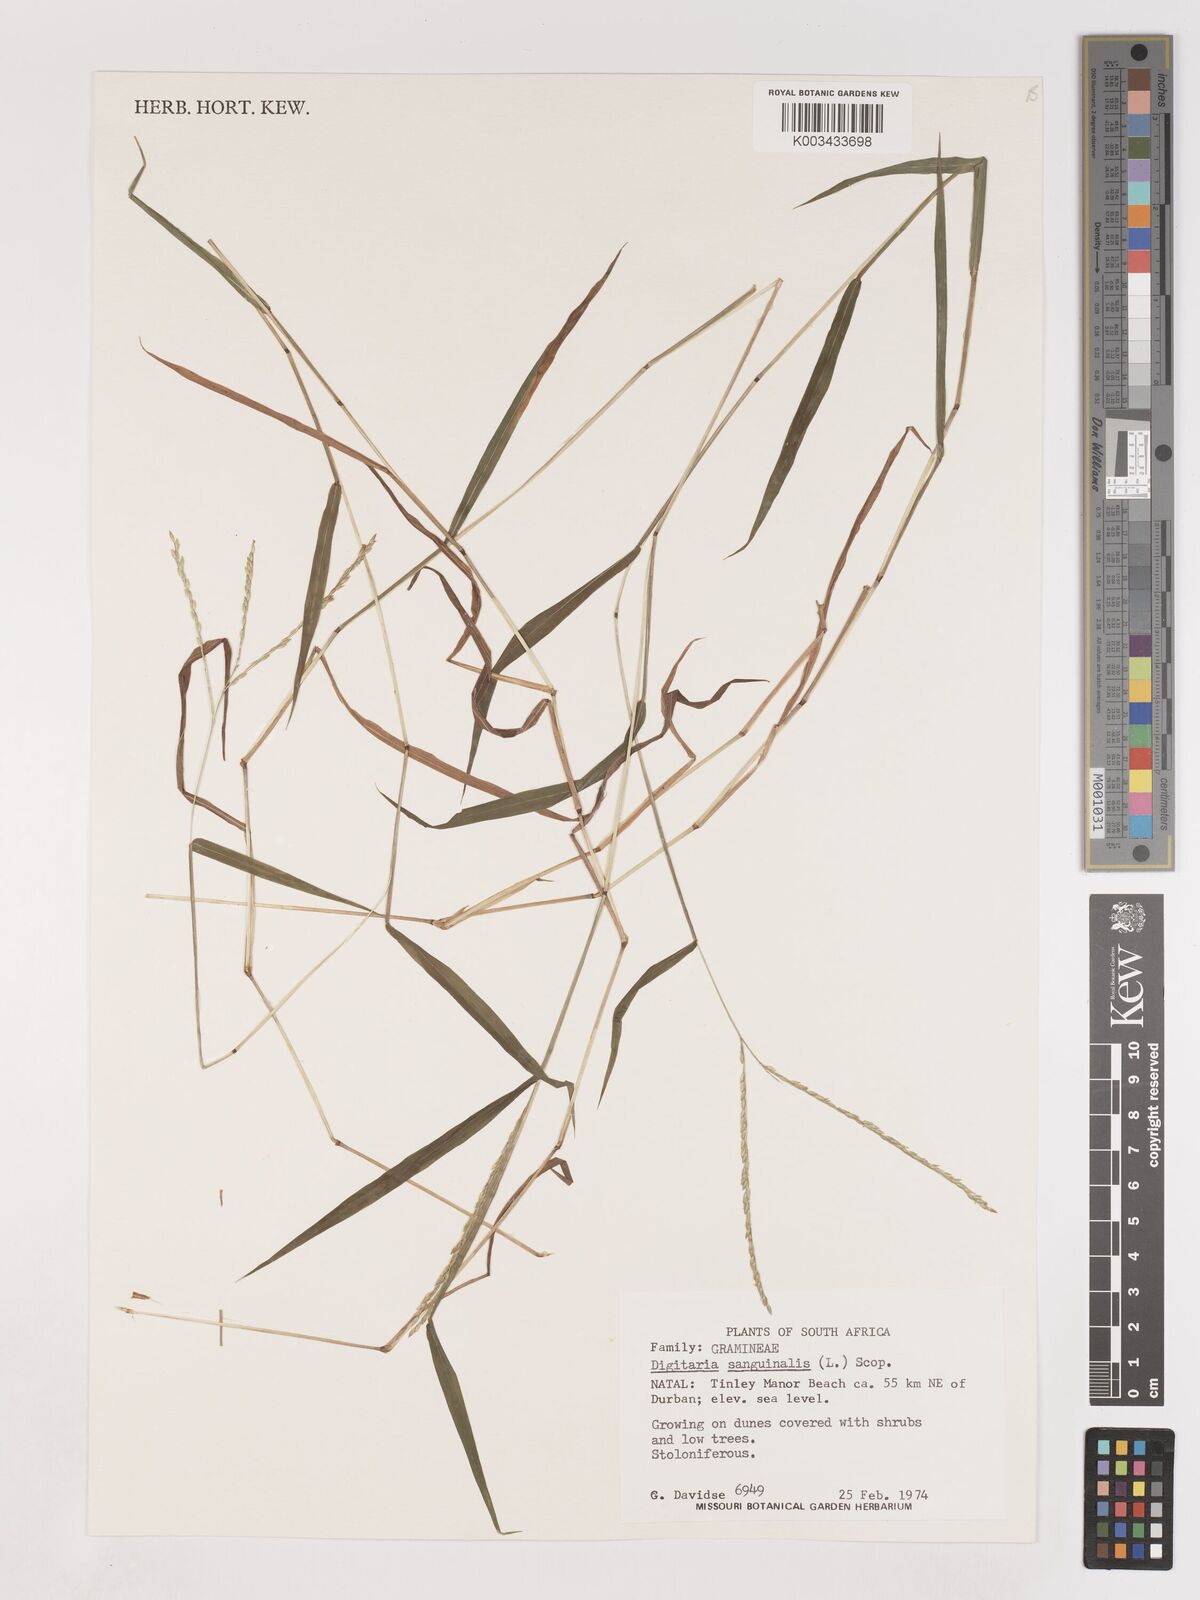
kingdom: Plantae
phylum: Tracheophyta
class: Liliopsida
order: Poales
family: Poaceae
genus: Digitaria
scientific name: Digitaria sanguinalis
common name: Hairy crabgrass
